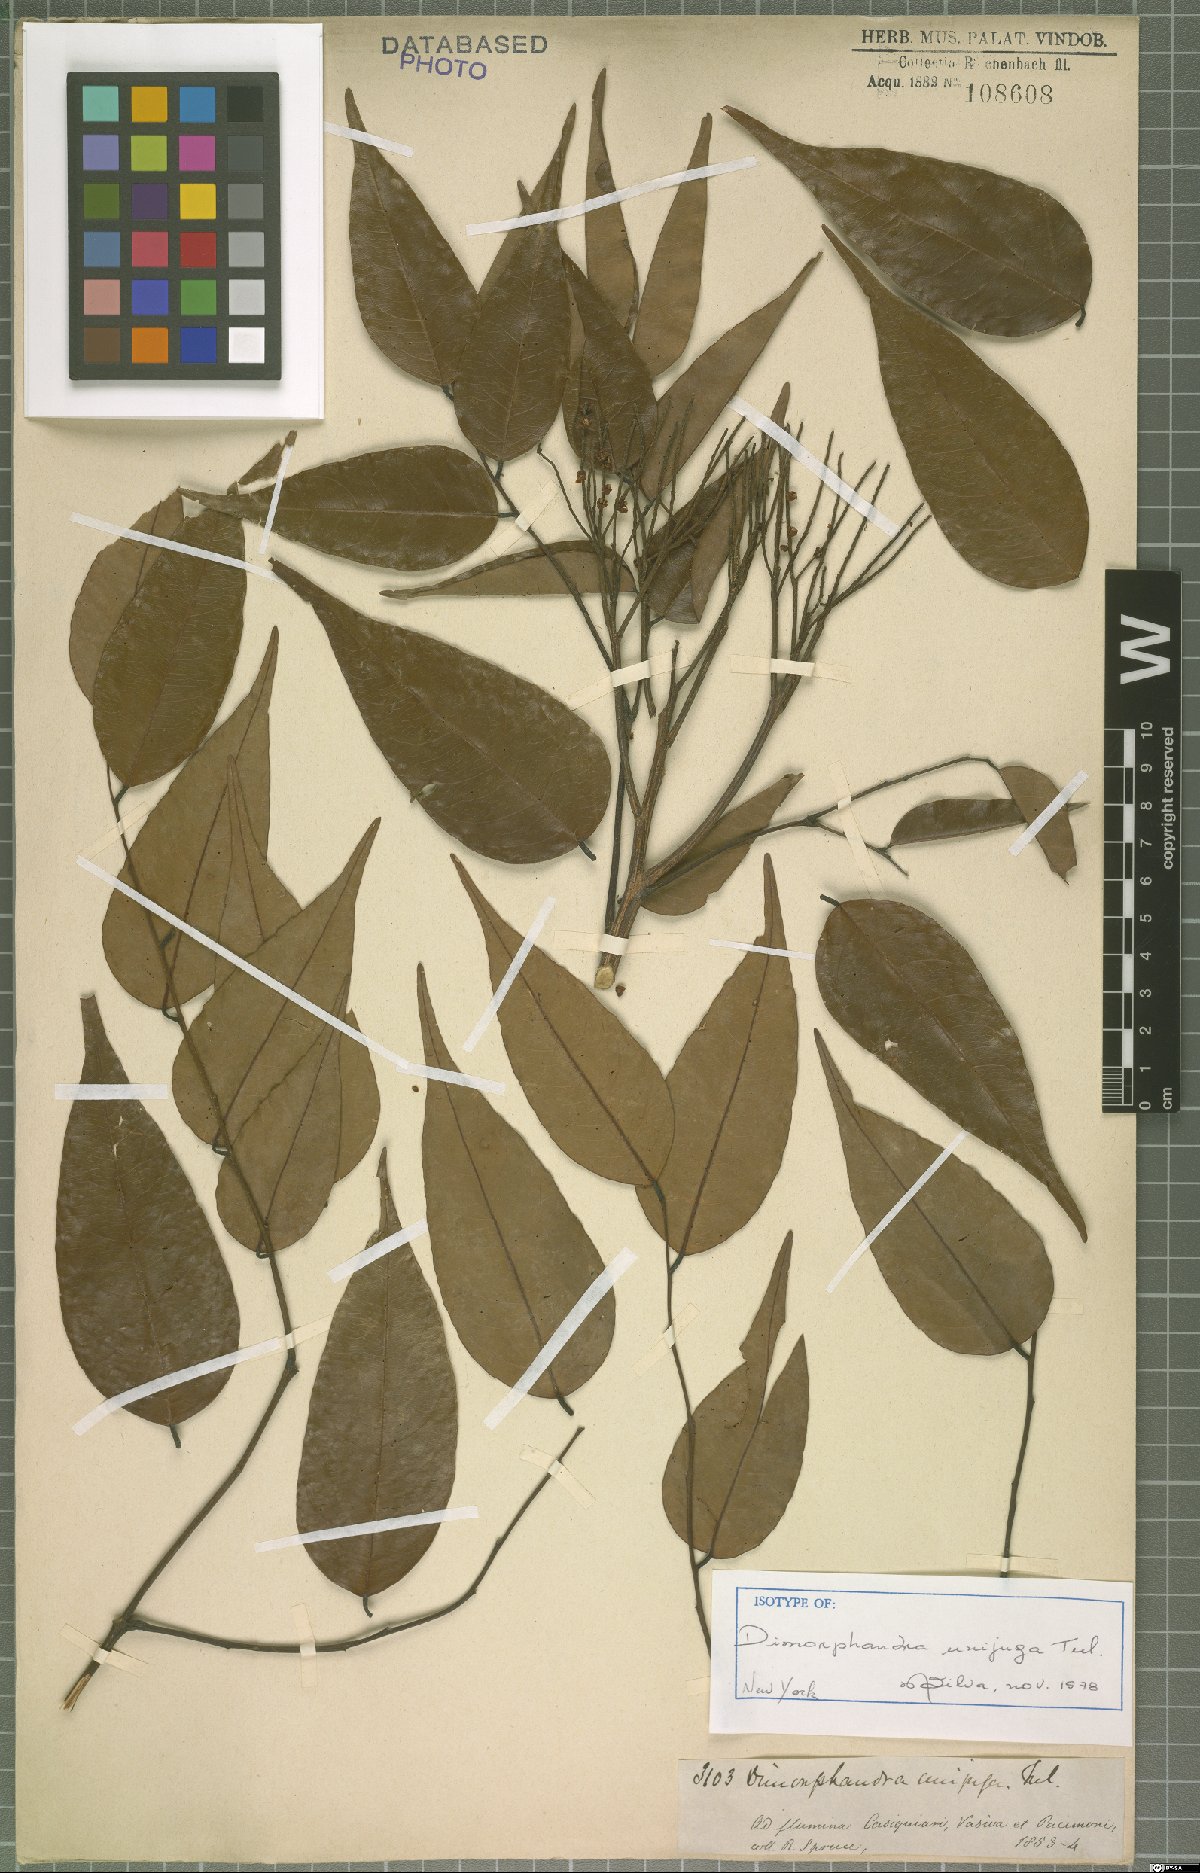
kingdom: Plantae
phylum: Tracheophyta
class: Magnoliopsida
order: Fabales
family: Fabaceae
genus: Dimorphandra
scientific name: Dimorphandra unijuga
